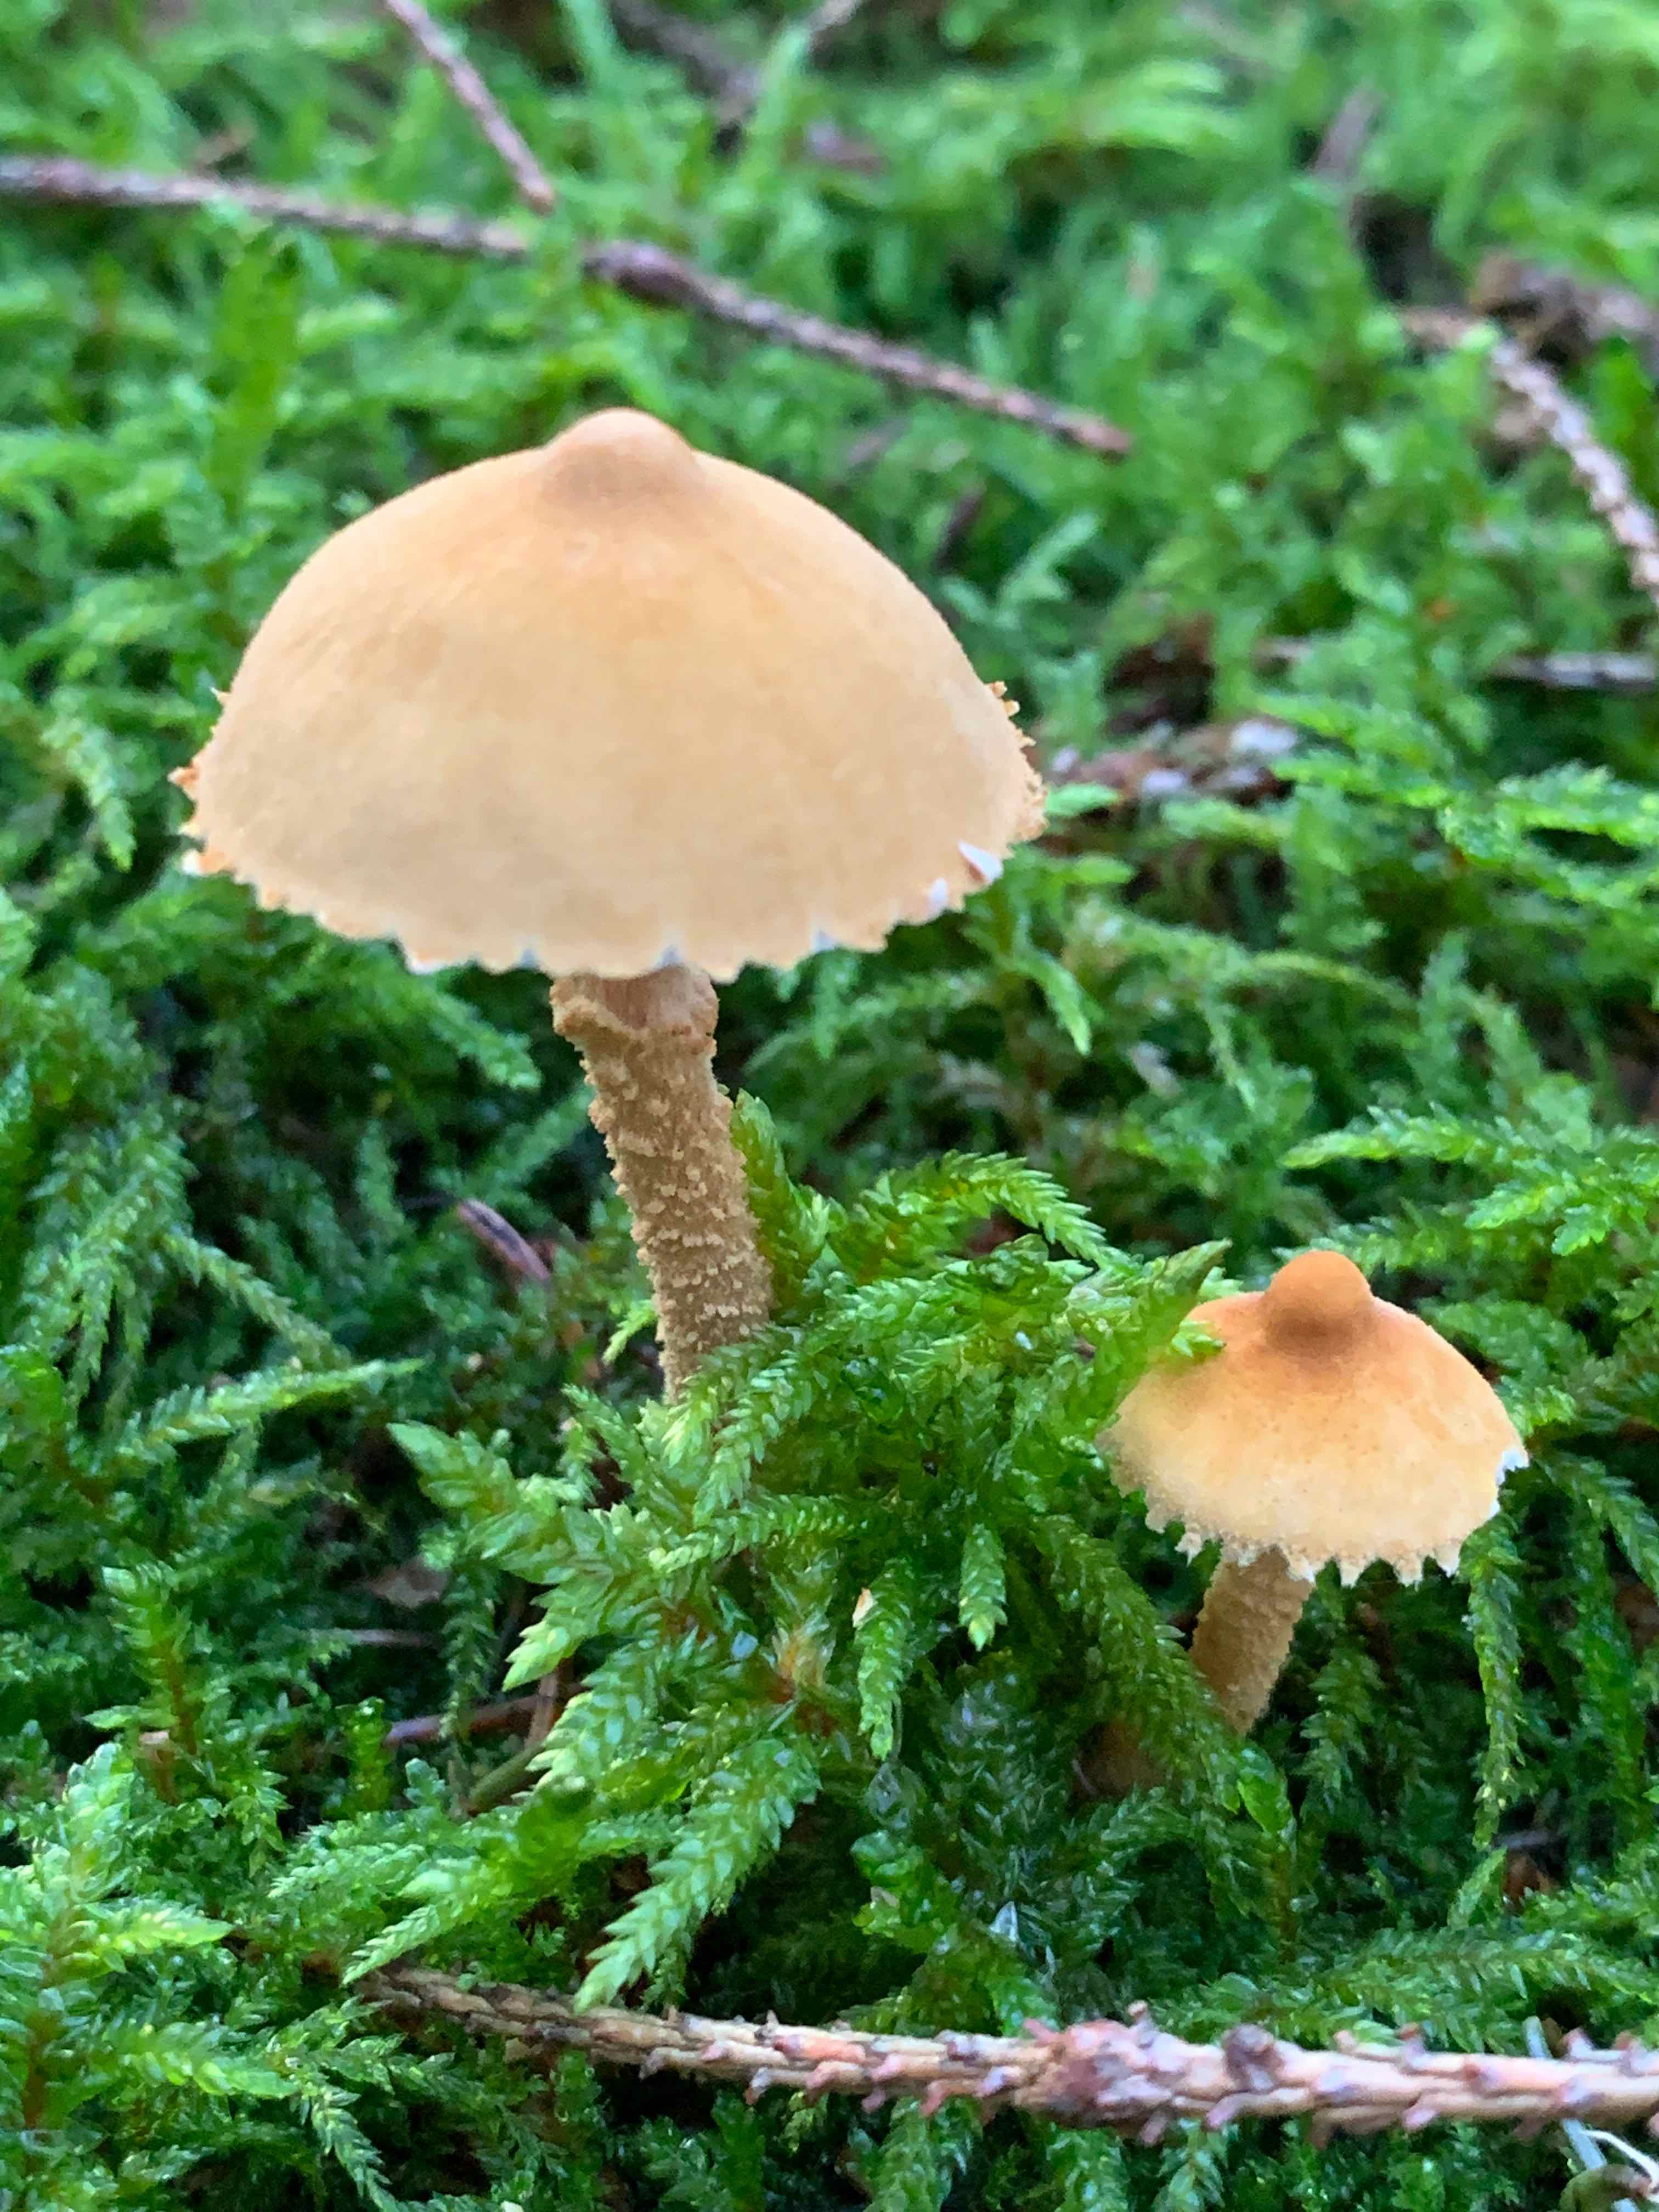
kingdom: Fungi
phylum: Basidiomycota
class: Agaricomycetes
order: Agaricales
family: Tricholomataceae
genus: Cystoderma
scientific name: Cystoderma
